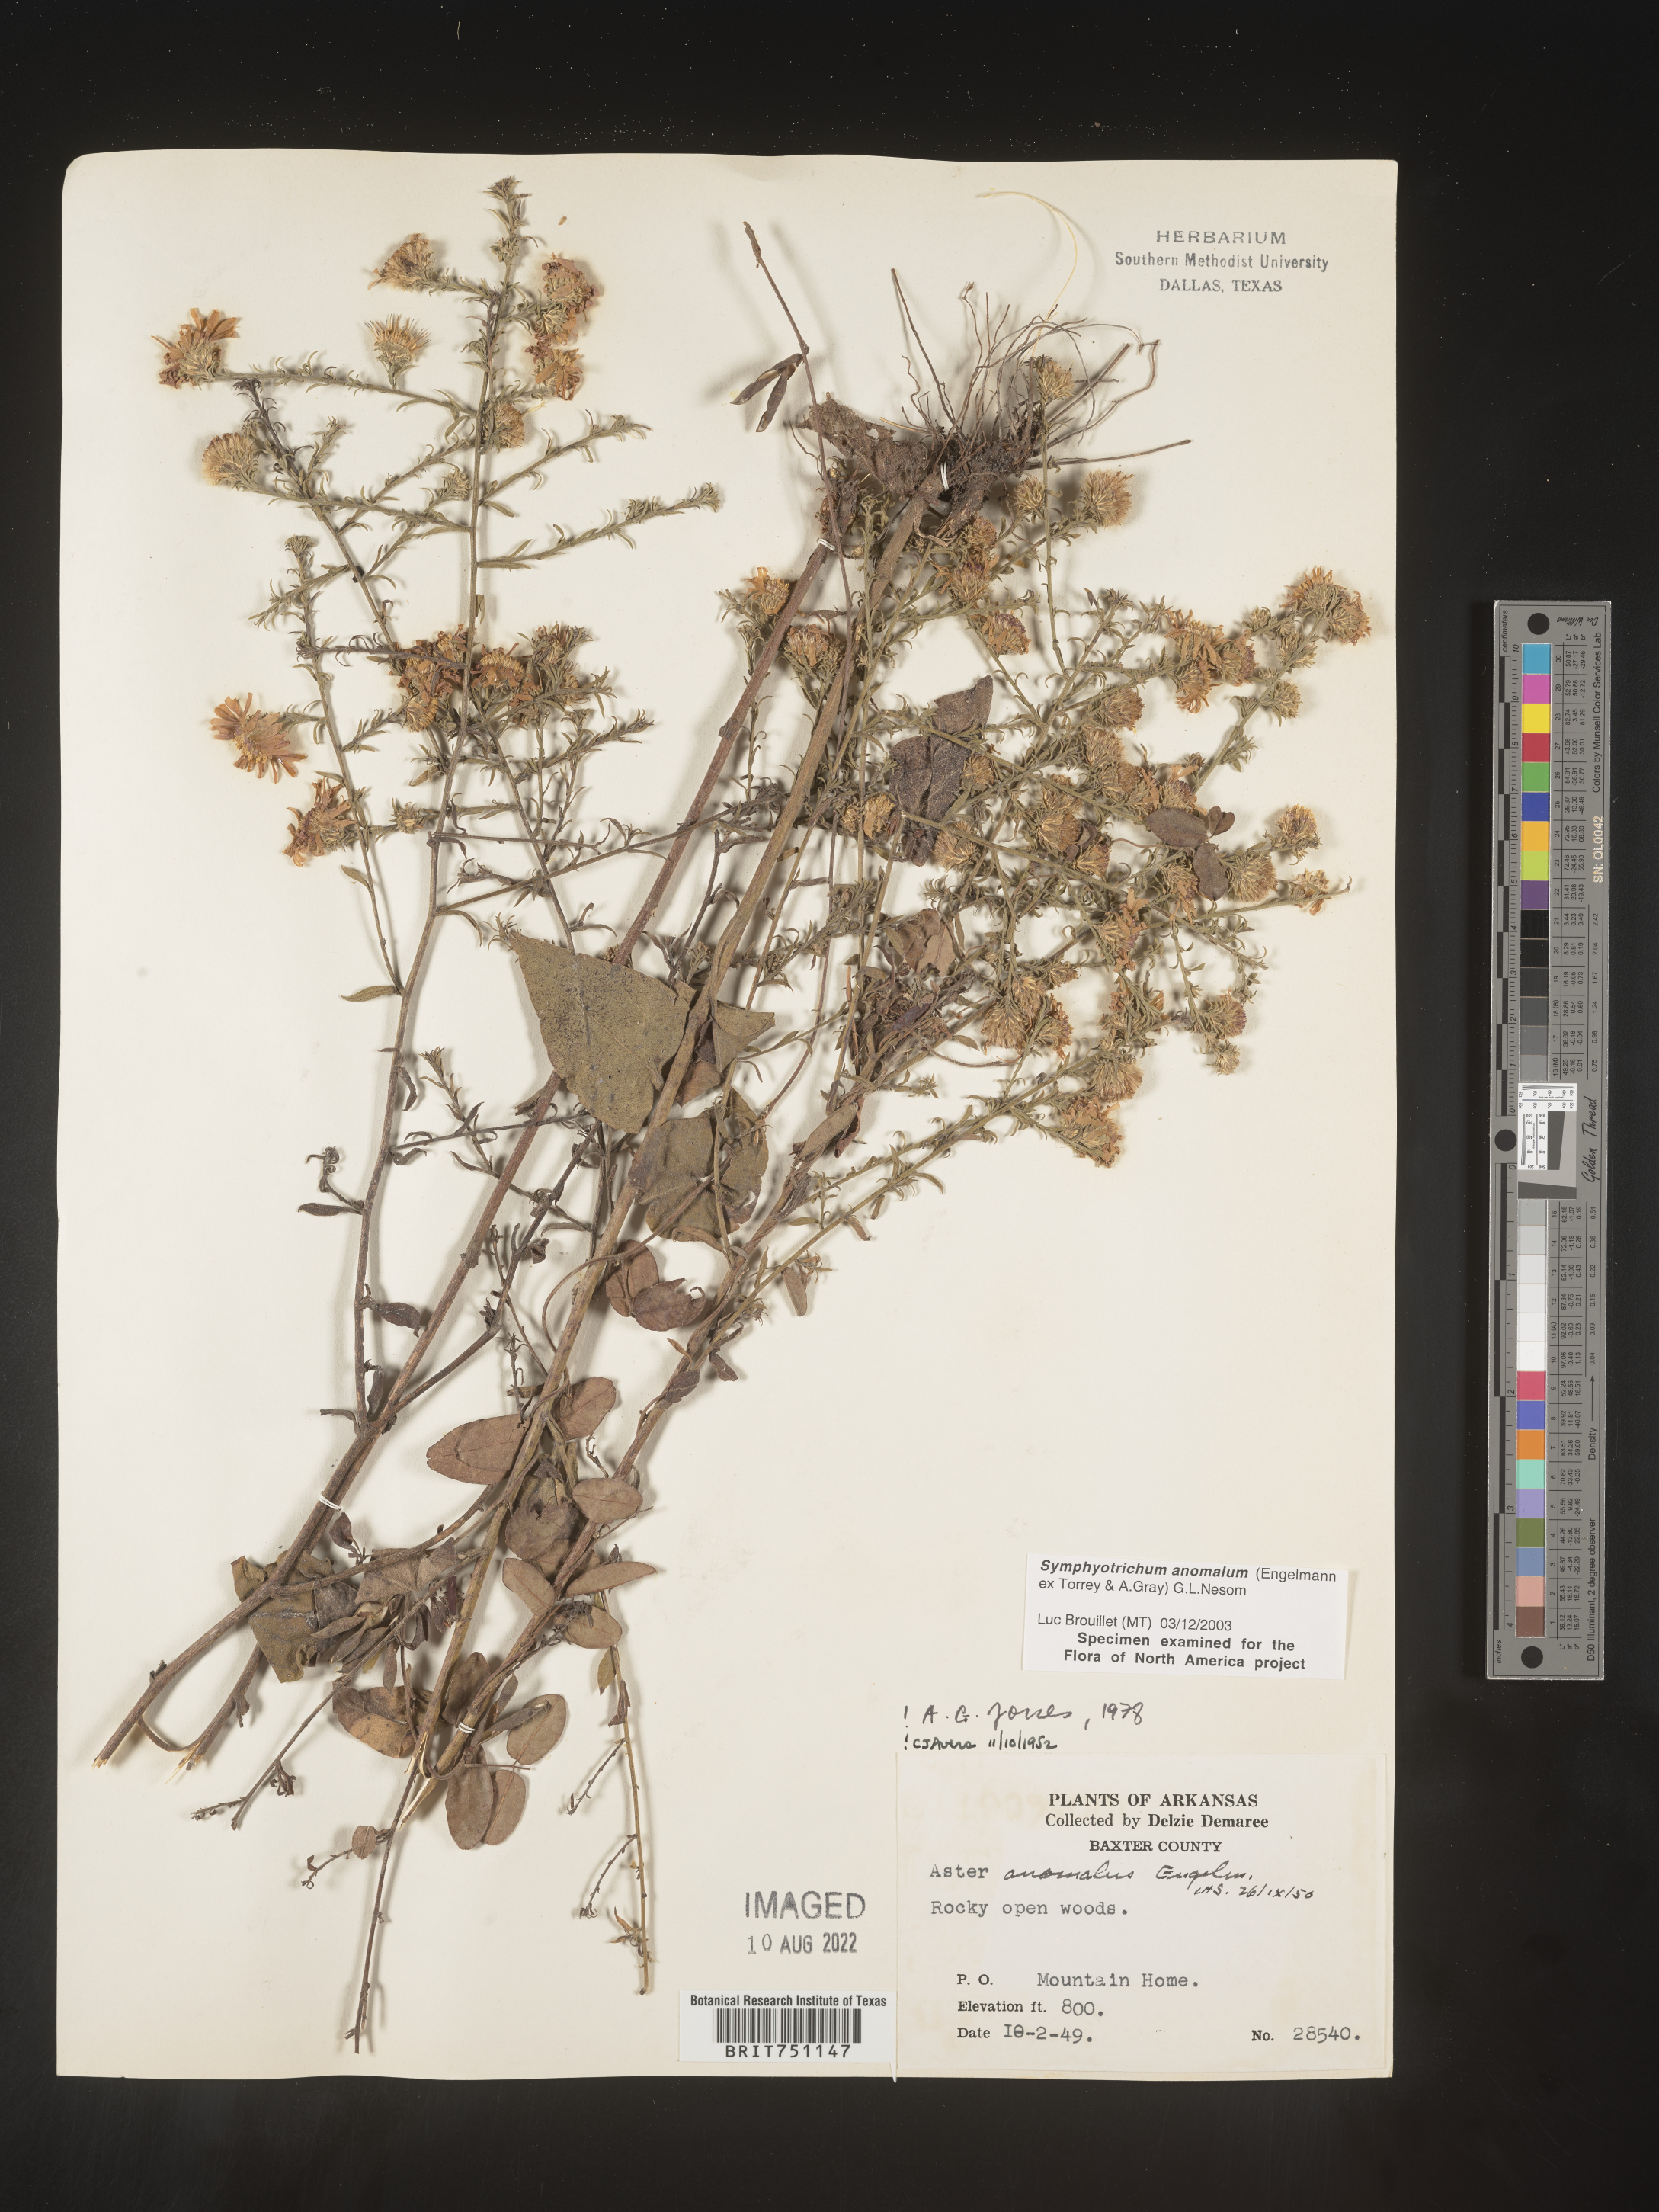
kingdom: Plantae
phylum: Tracheophyta
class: Magnoliopsida
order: Asterales
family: Asteraceae
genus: Symphyotrichum
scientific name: Symphyotrichum anomalum
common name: Many-ray aster
